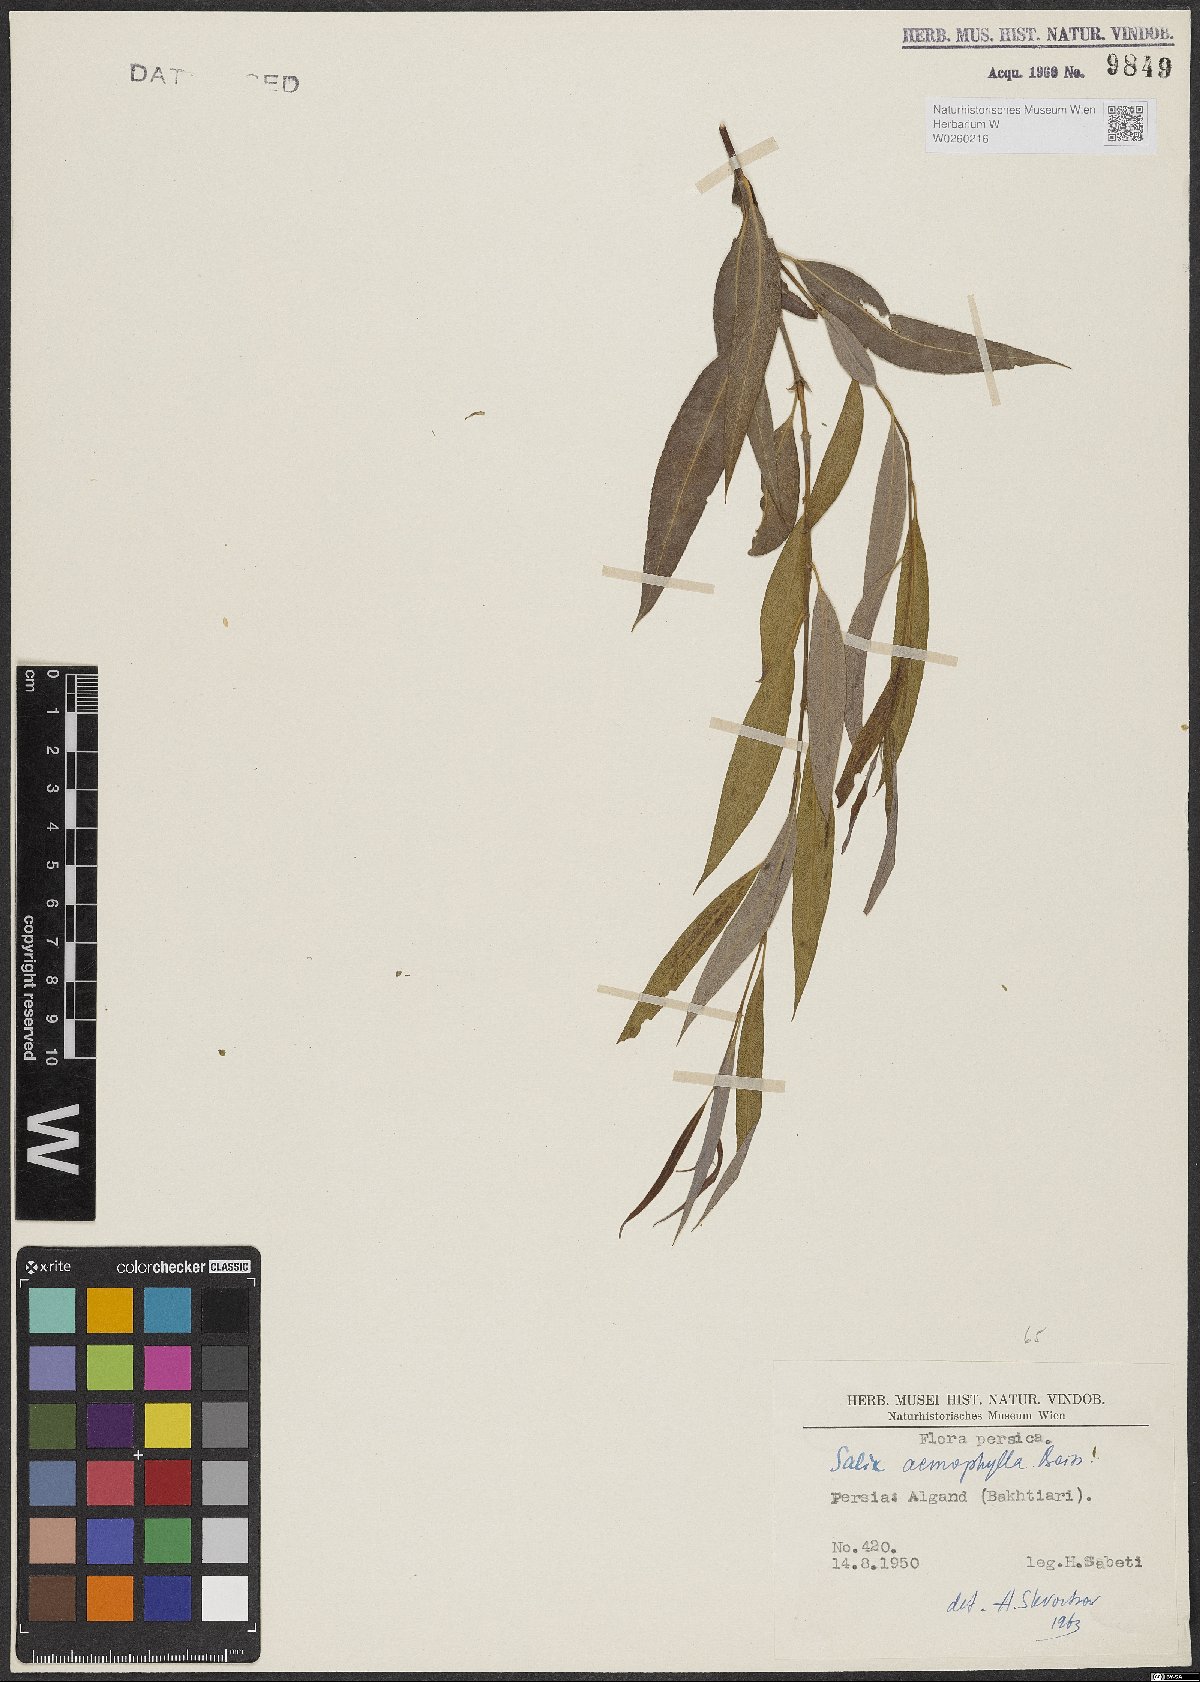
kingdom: Plantae
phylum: Tracheophyta
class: Magnoliopsida
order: Malpighiales
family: Salicaceae
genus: Salix
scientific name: Salix acmophylla
